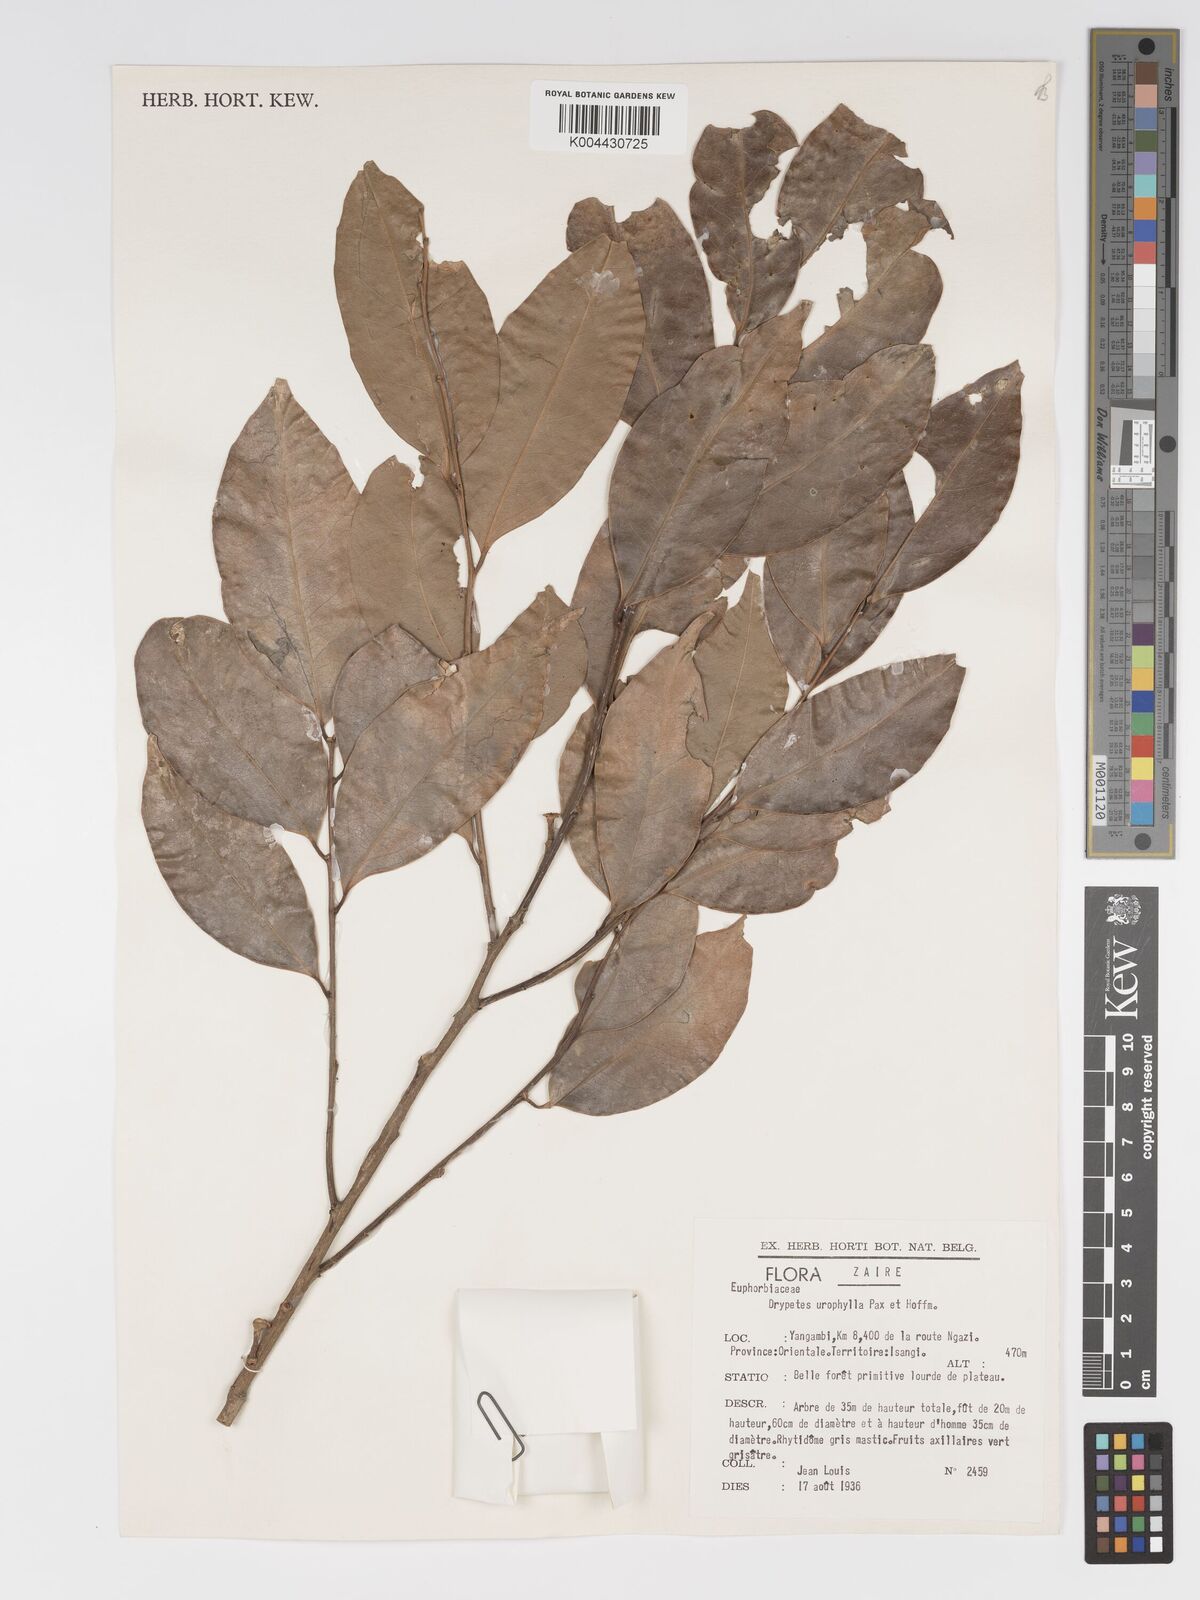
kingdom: Plantae
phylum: Tracheophyta
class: Magnoliopsida
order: Malpighiales
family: Putranjivaceae
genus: Drypetes
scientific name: Drypetes leonensis
